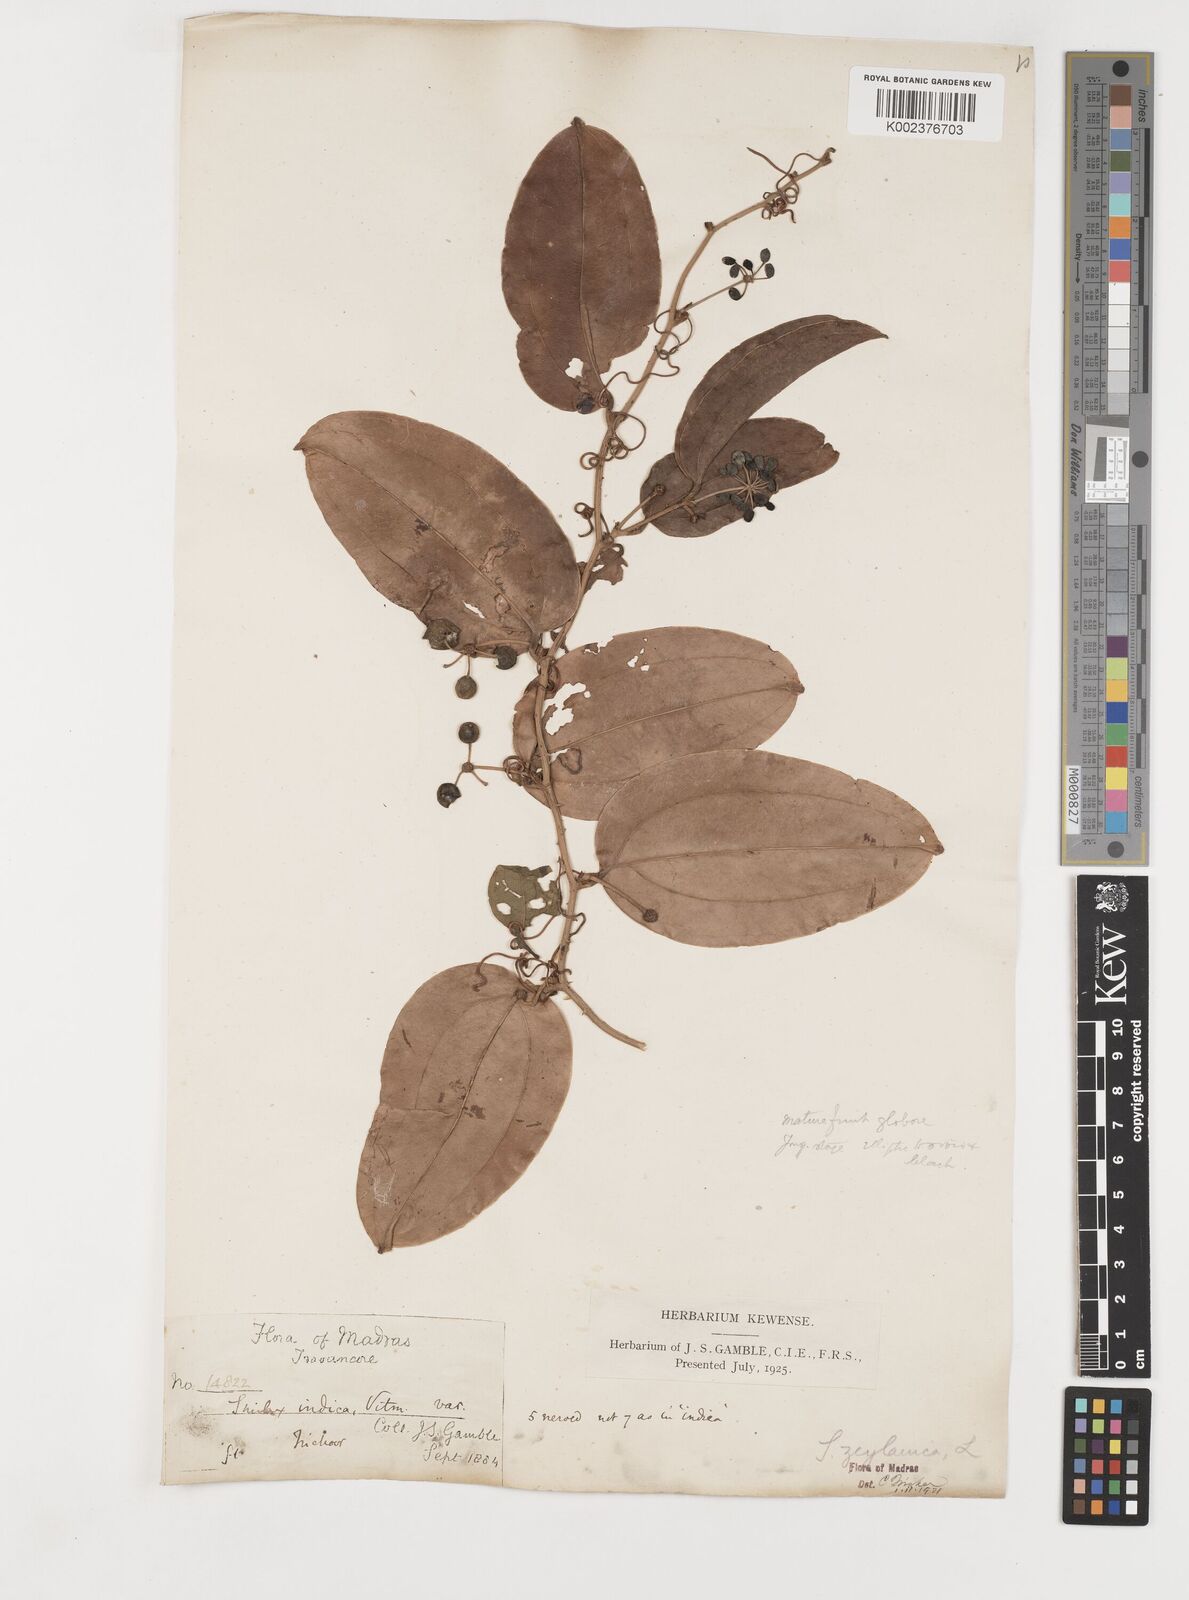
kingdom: Plantae
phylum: Tracheophyta
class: Liliopsida
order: Liliales
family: Smilacaceae
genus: Smilax
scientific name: Smilax zeylanica
